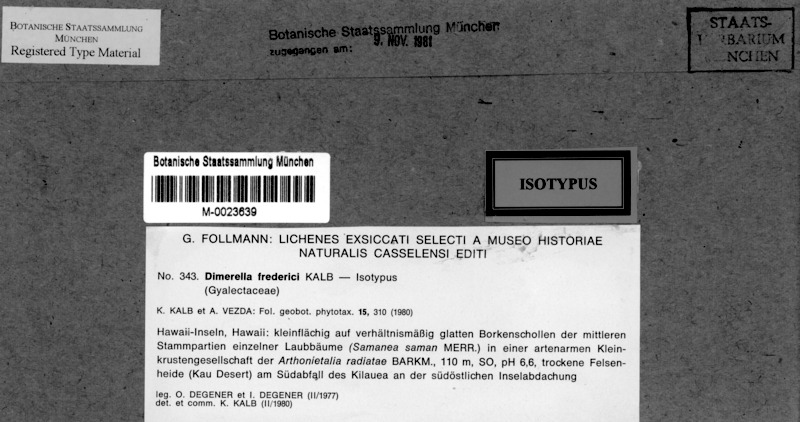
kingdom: Fungi
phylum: Ascomycota
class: Lecanoromycetes
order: Ostropales
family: Coenogoniaceae
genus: Coenogonium
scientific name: Coenogonium frederici
